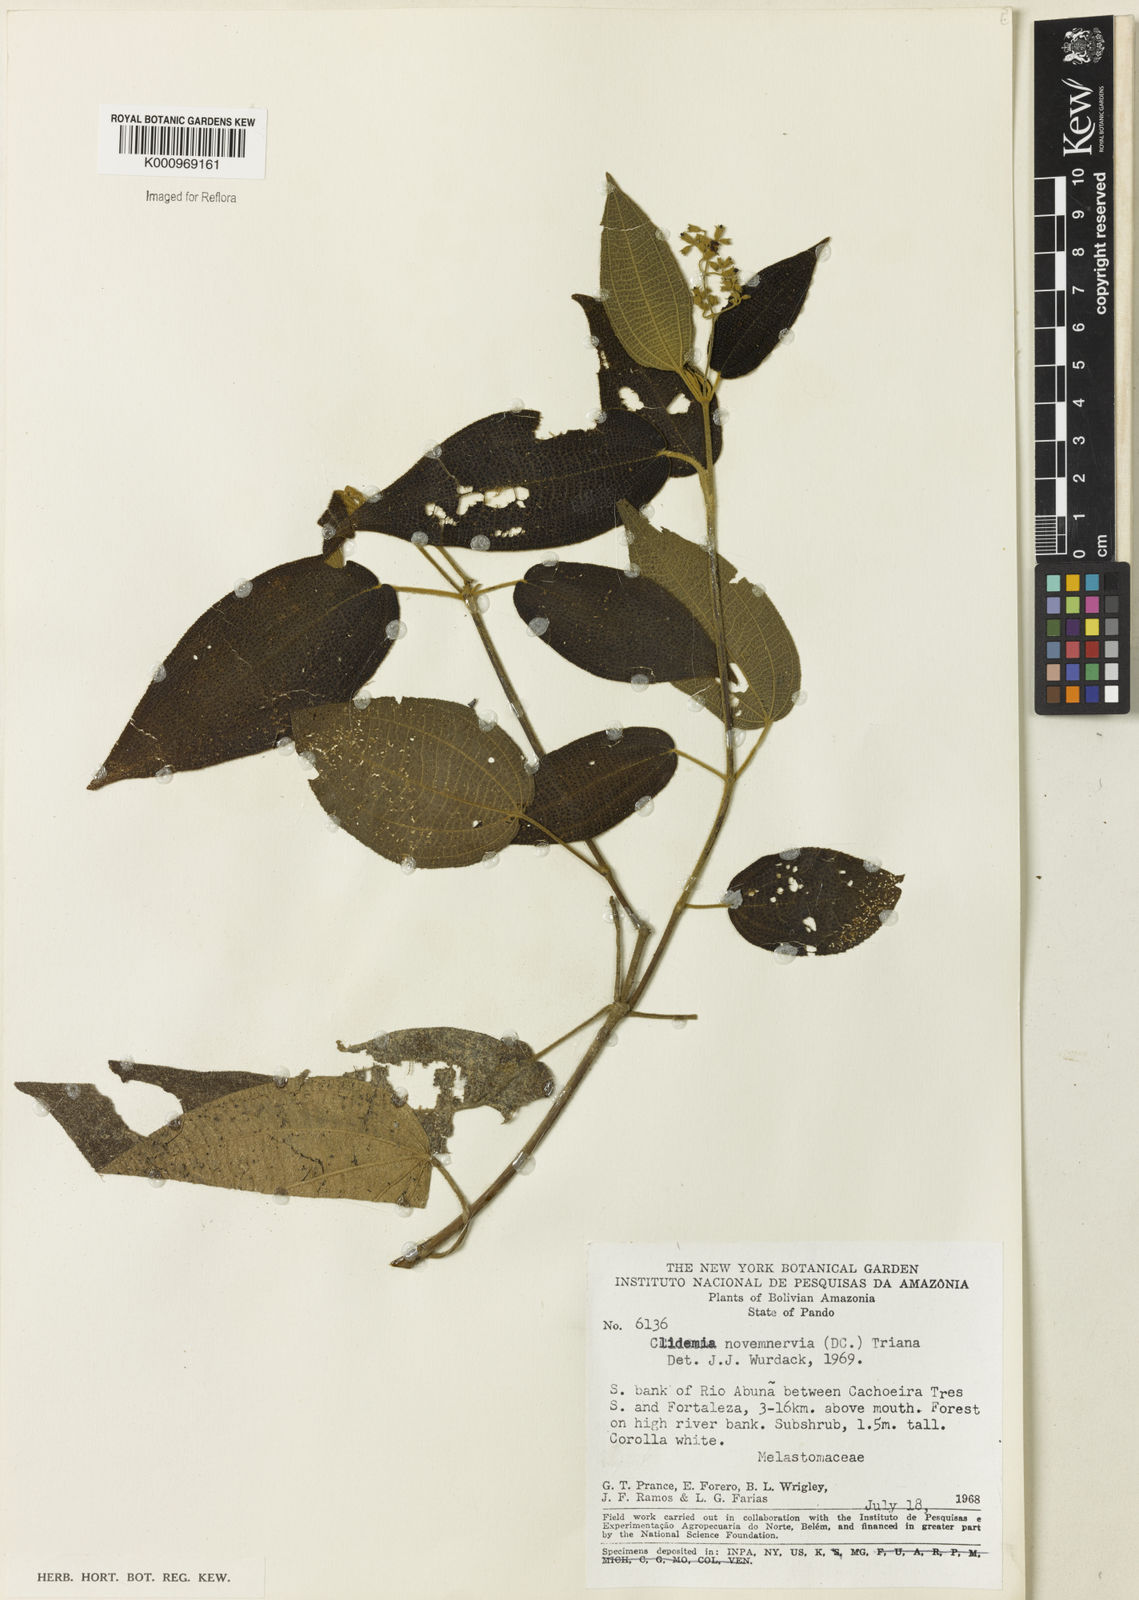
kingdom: Plantae
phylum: Tracheophyta
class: Magnoliopsida
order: Myrtales
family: Melastomataceae
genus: Miconia
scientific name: Miconia bullatifolia
